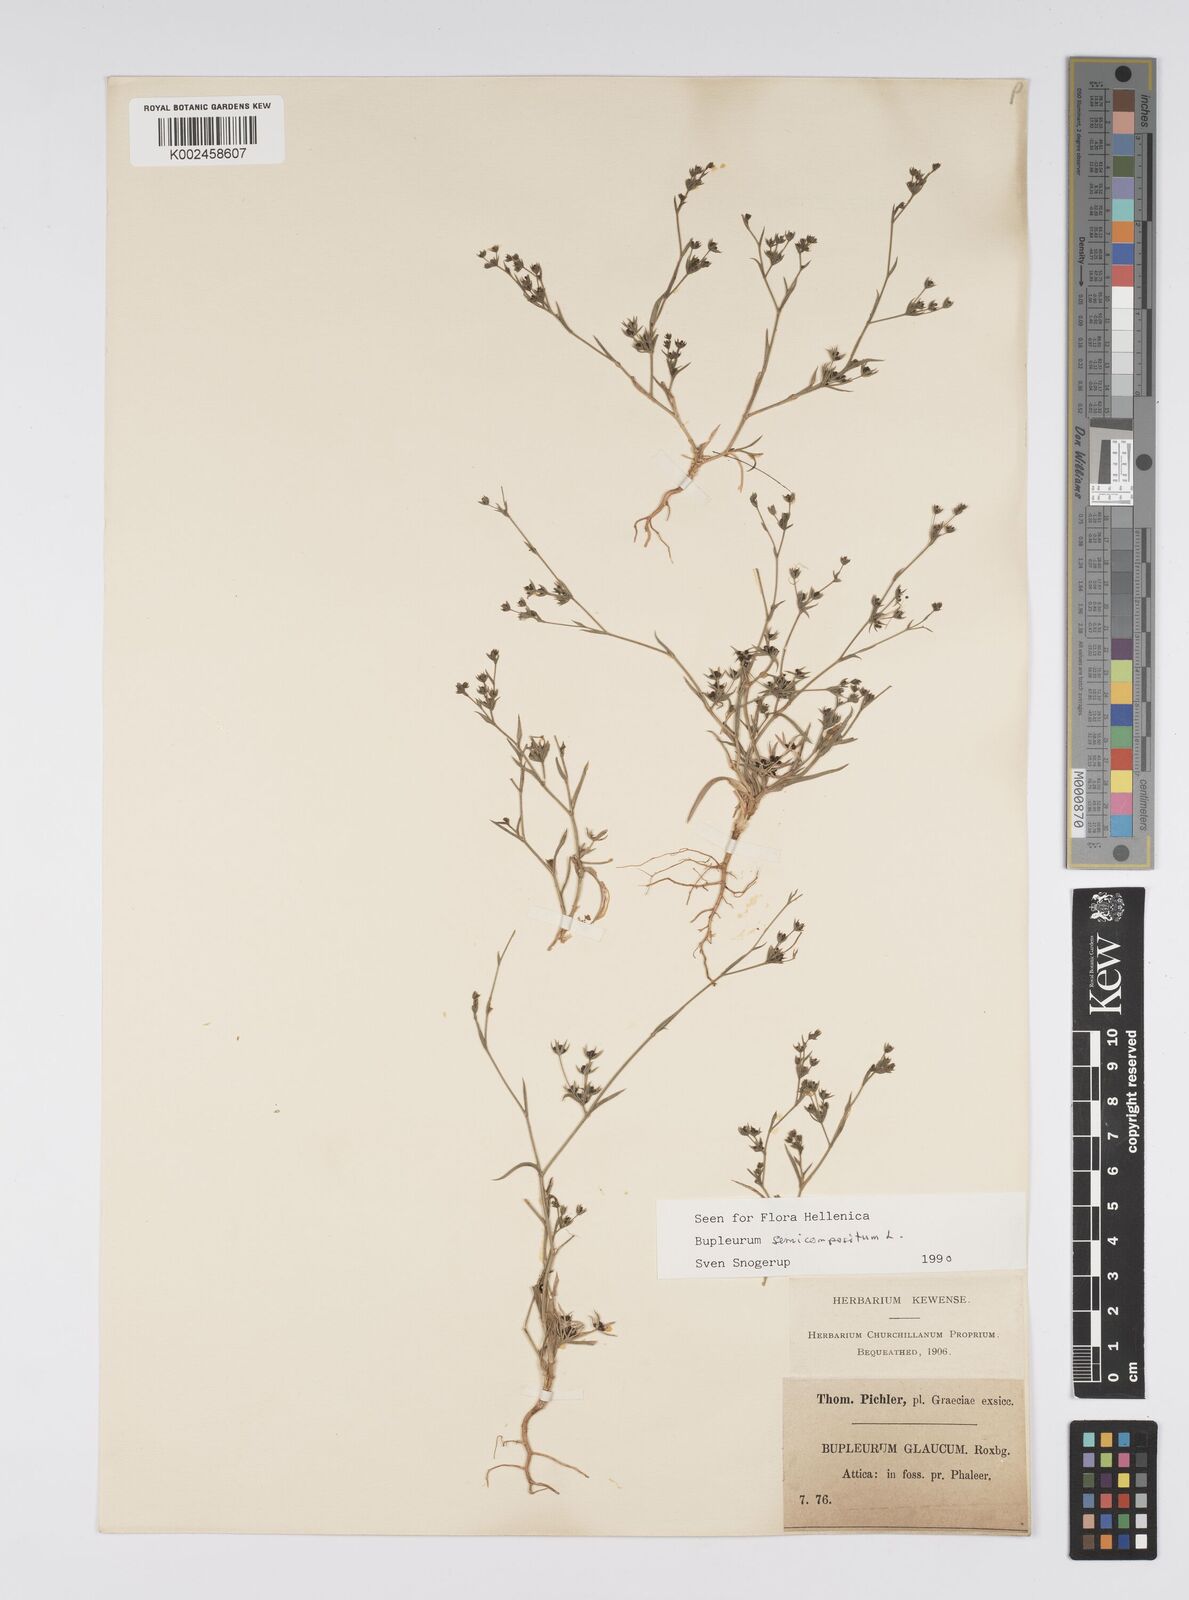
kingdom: Plantae
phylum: Tracheophyta
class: Magnoliopsida
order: Apiales
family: Apiaceae
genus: Bupleurum
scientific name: Bupleurum semicompositum
